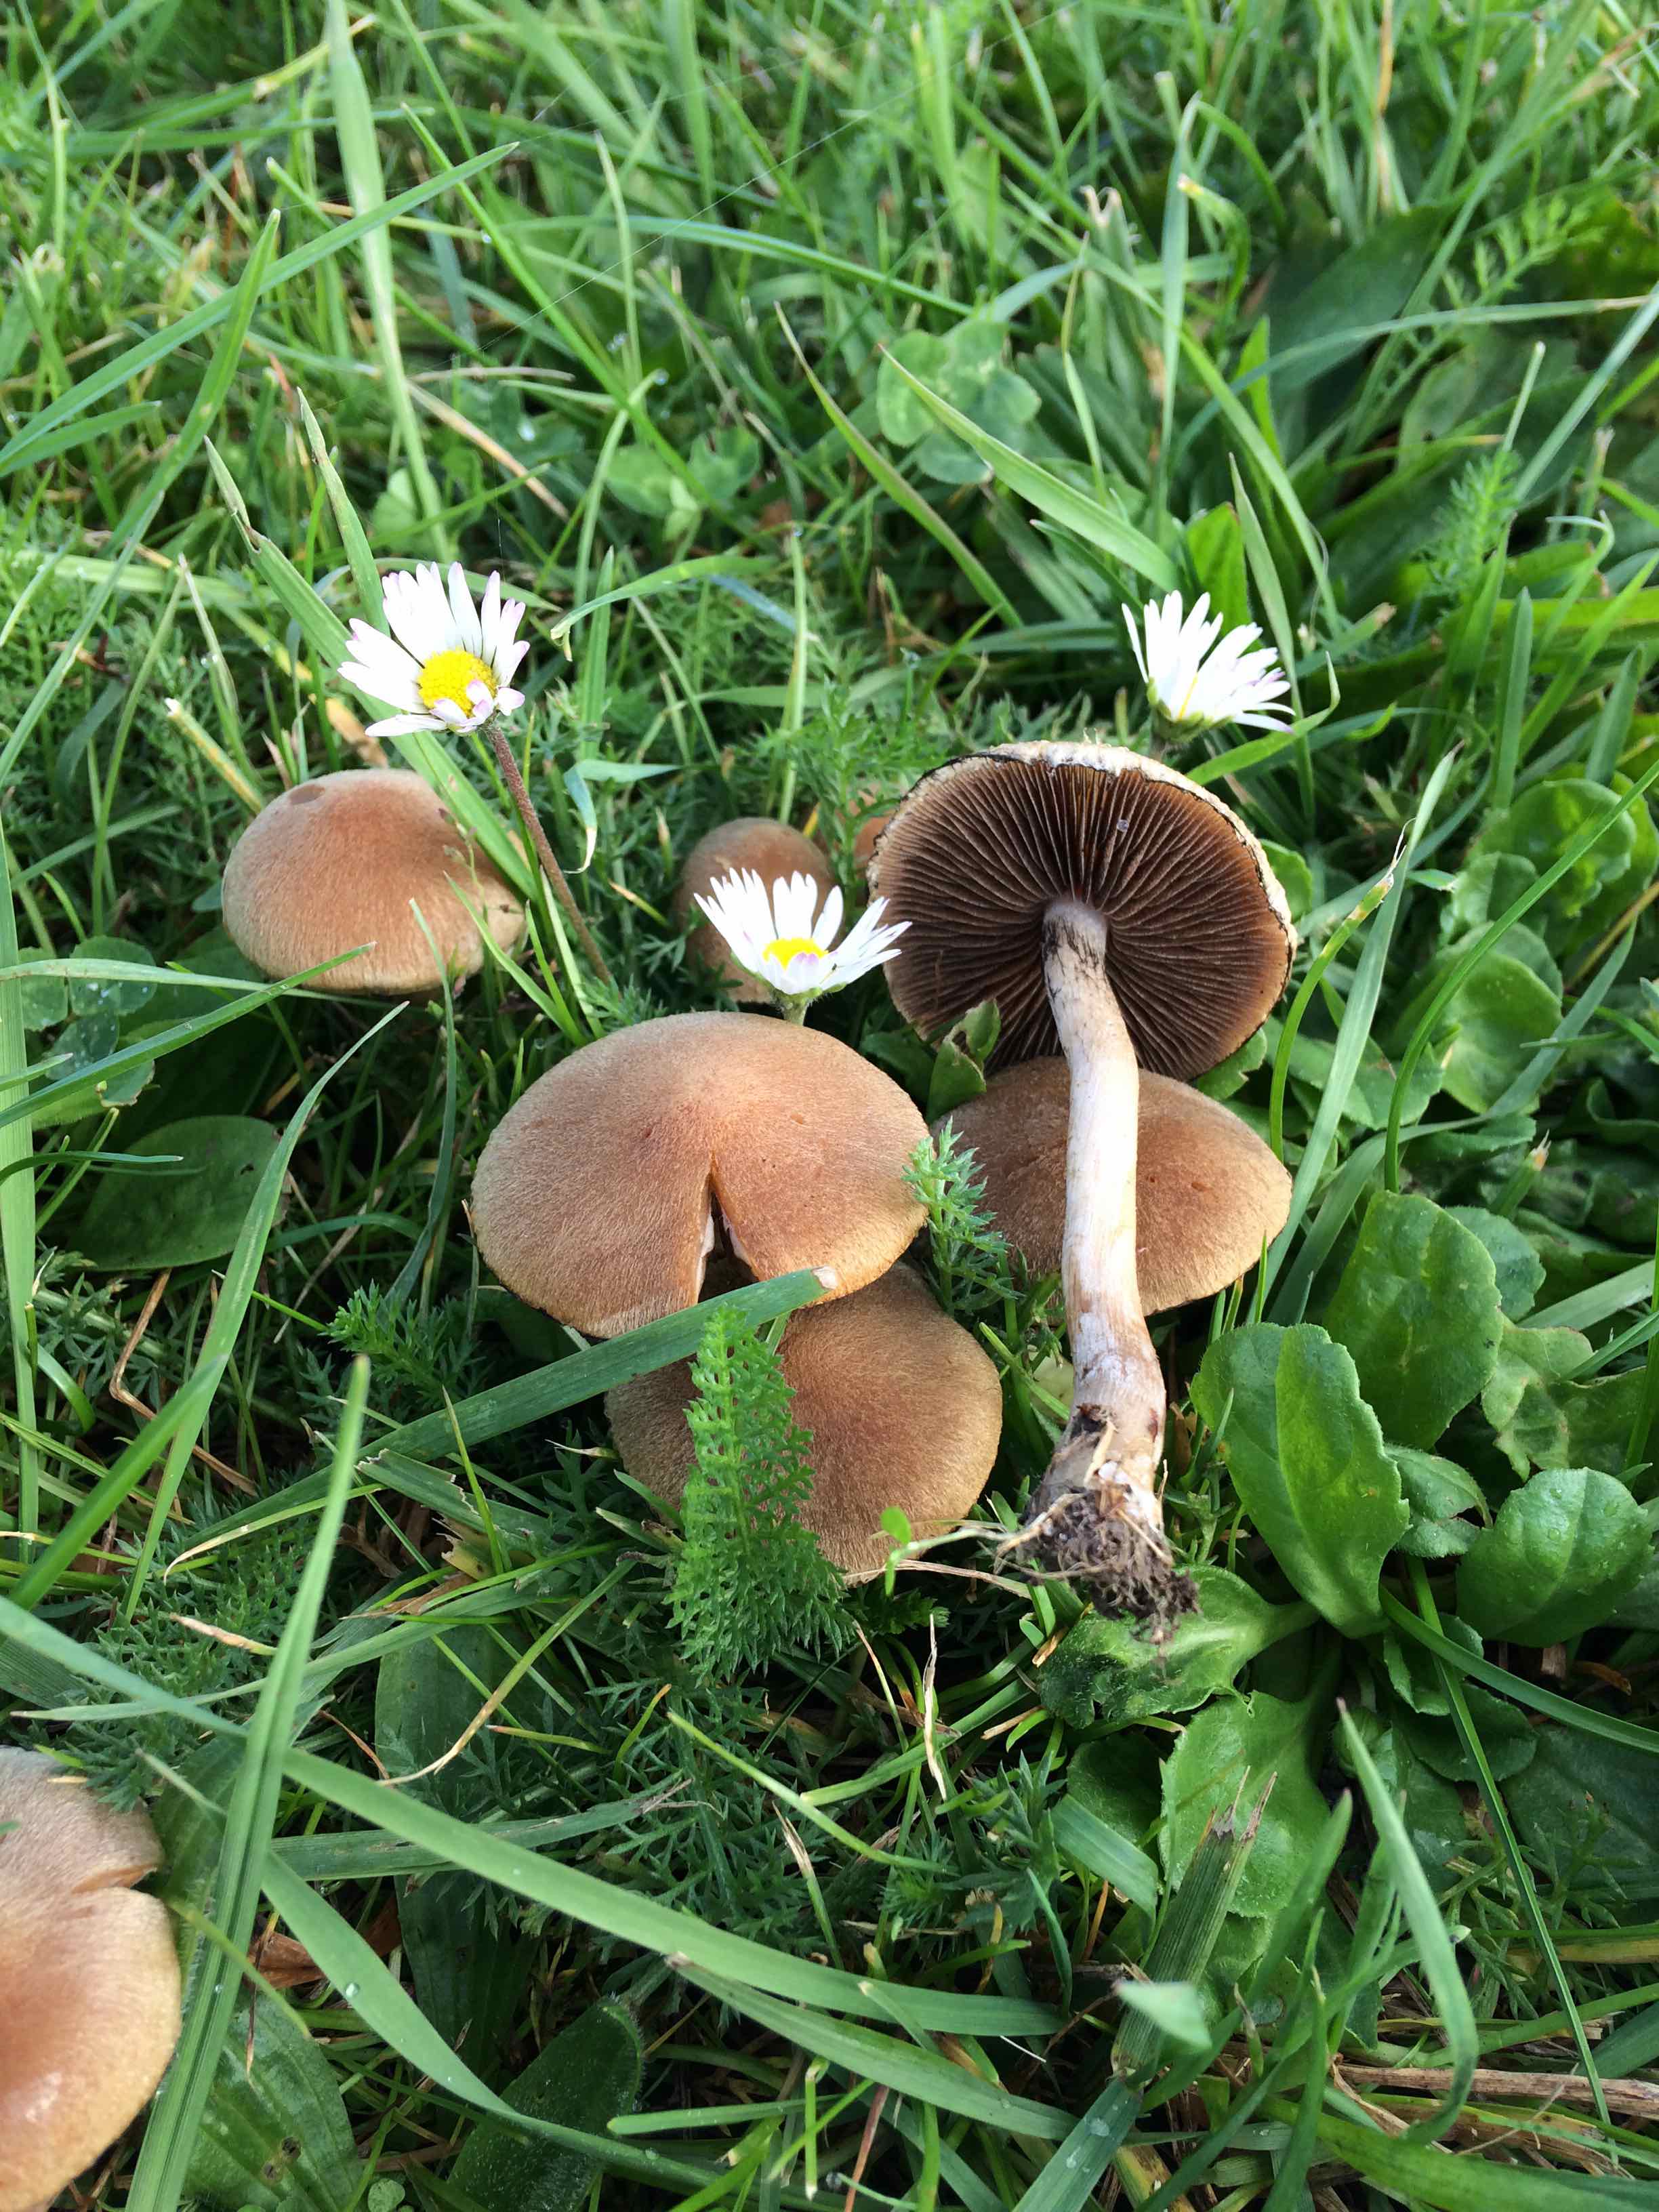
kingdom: Fungi
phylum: Basidiomycota
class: Agaricomycetes
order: Agaricales
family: Psathyrellaceae
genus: Lacrymaria
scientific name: Lacrymaria lacrymabunda
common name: grædende mørkhat
